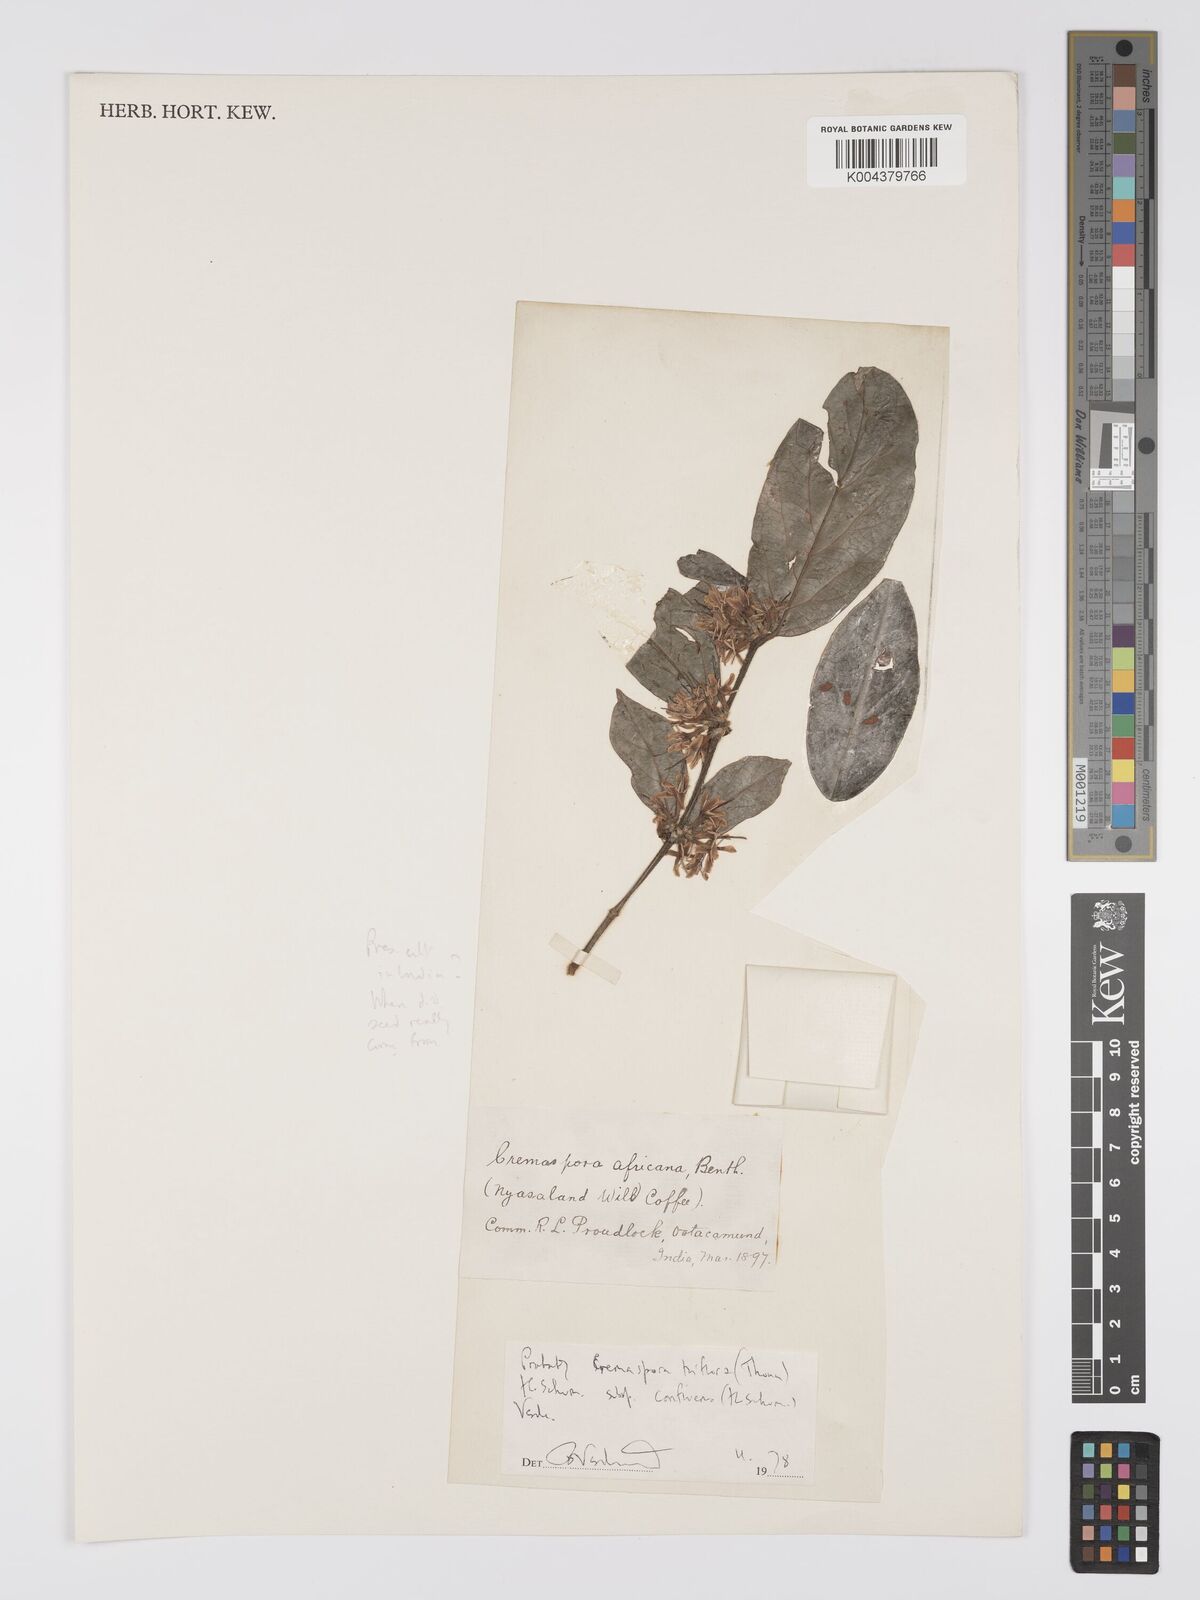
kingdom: Plantae
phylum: Tracheophyta
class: Magnoliopsida
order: Gentianales
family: Rubiaceae
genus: Cremaspora
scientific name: Cremaspora
